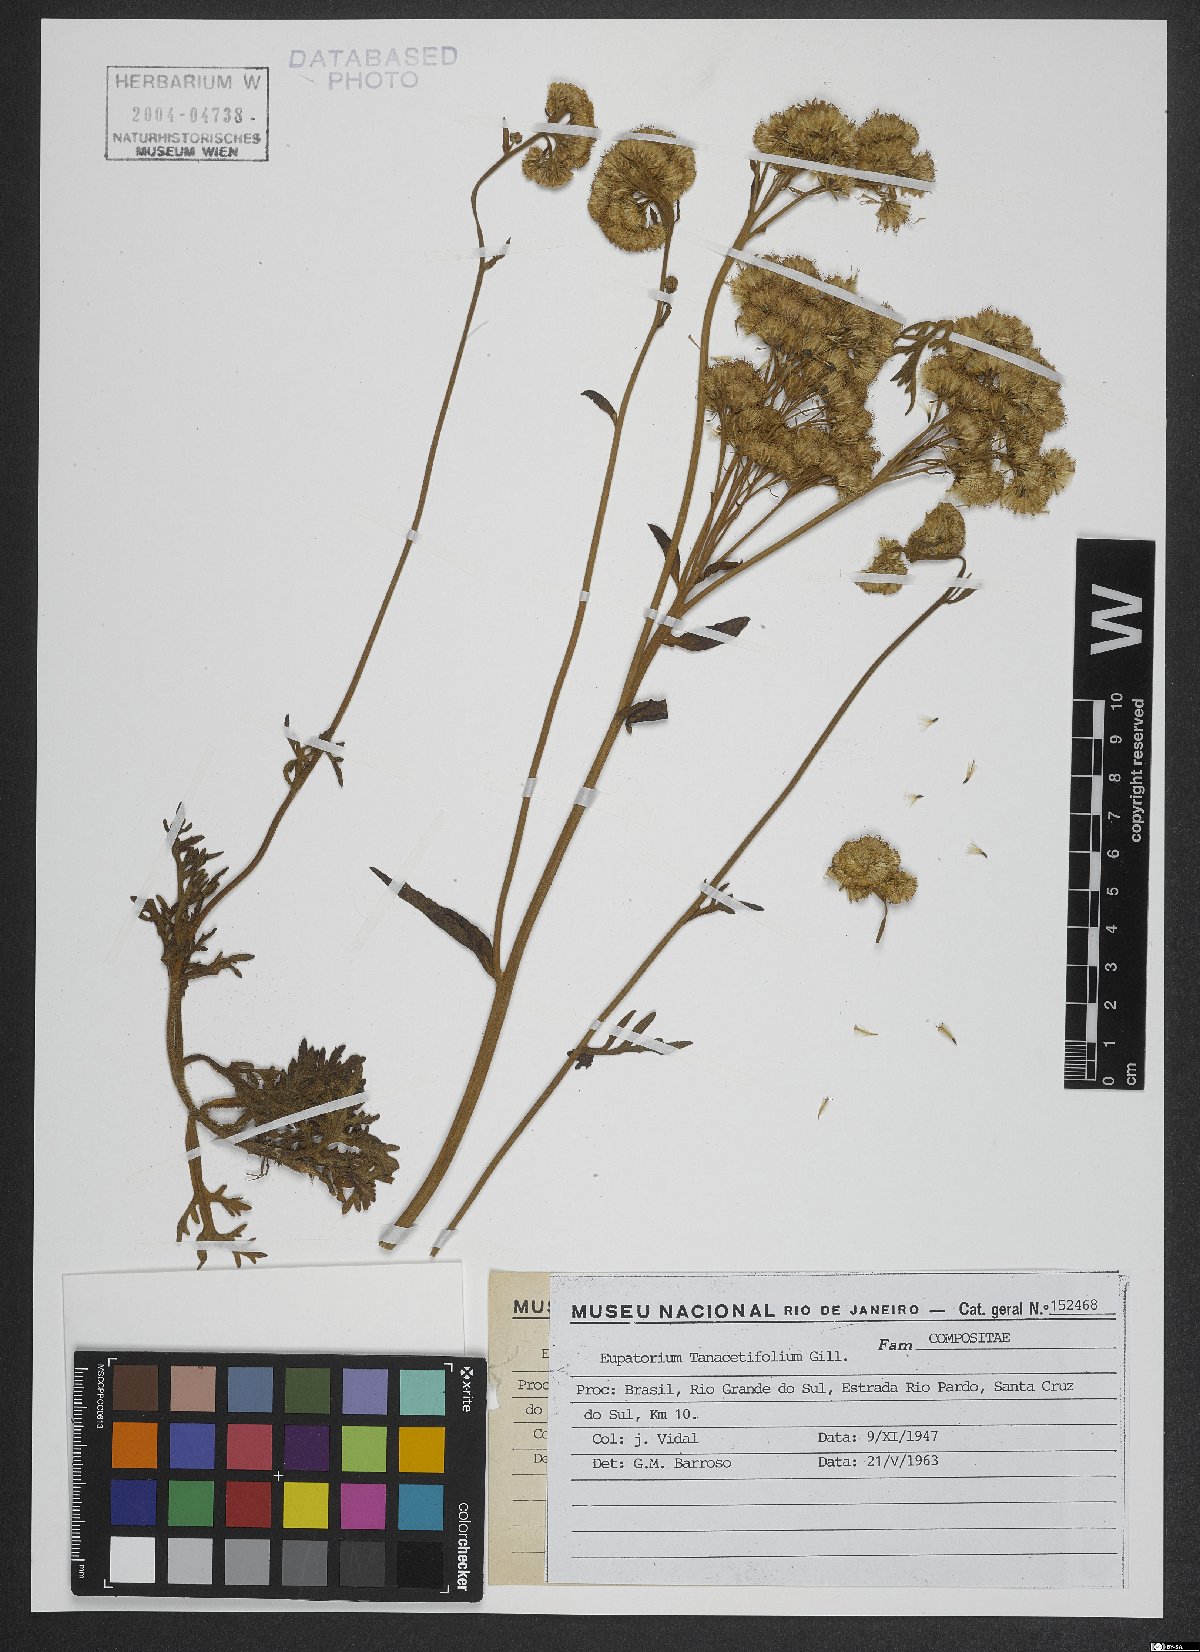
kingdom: Plantae
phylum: Tracheophyta
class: Magnoliopsida
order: Asterales
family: Asteraceae
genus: Gyptis
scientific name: Gyptis tanacetifolia
